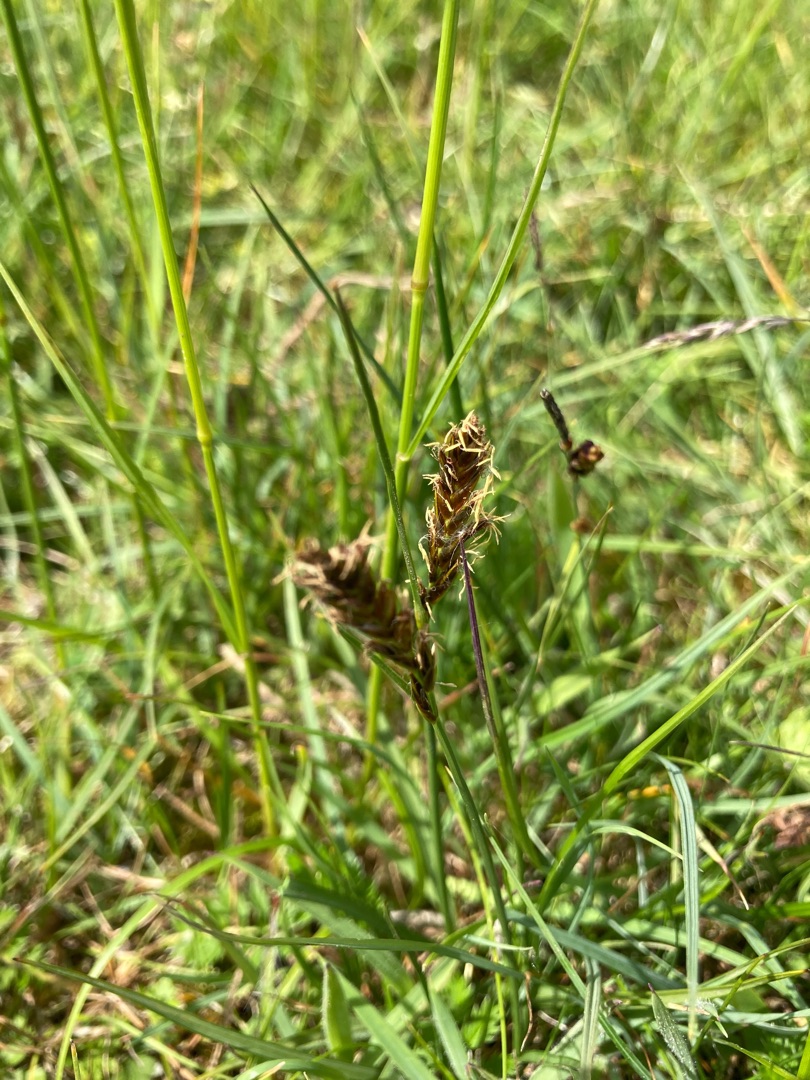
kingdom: Plantae
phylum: Tracheophyta
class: Liliopsida
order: Poales
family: Cyperaceae
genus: Blysmus
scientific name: Blysmus compressus
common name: Fladtrykt kogleaks
